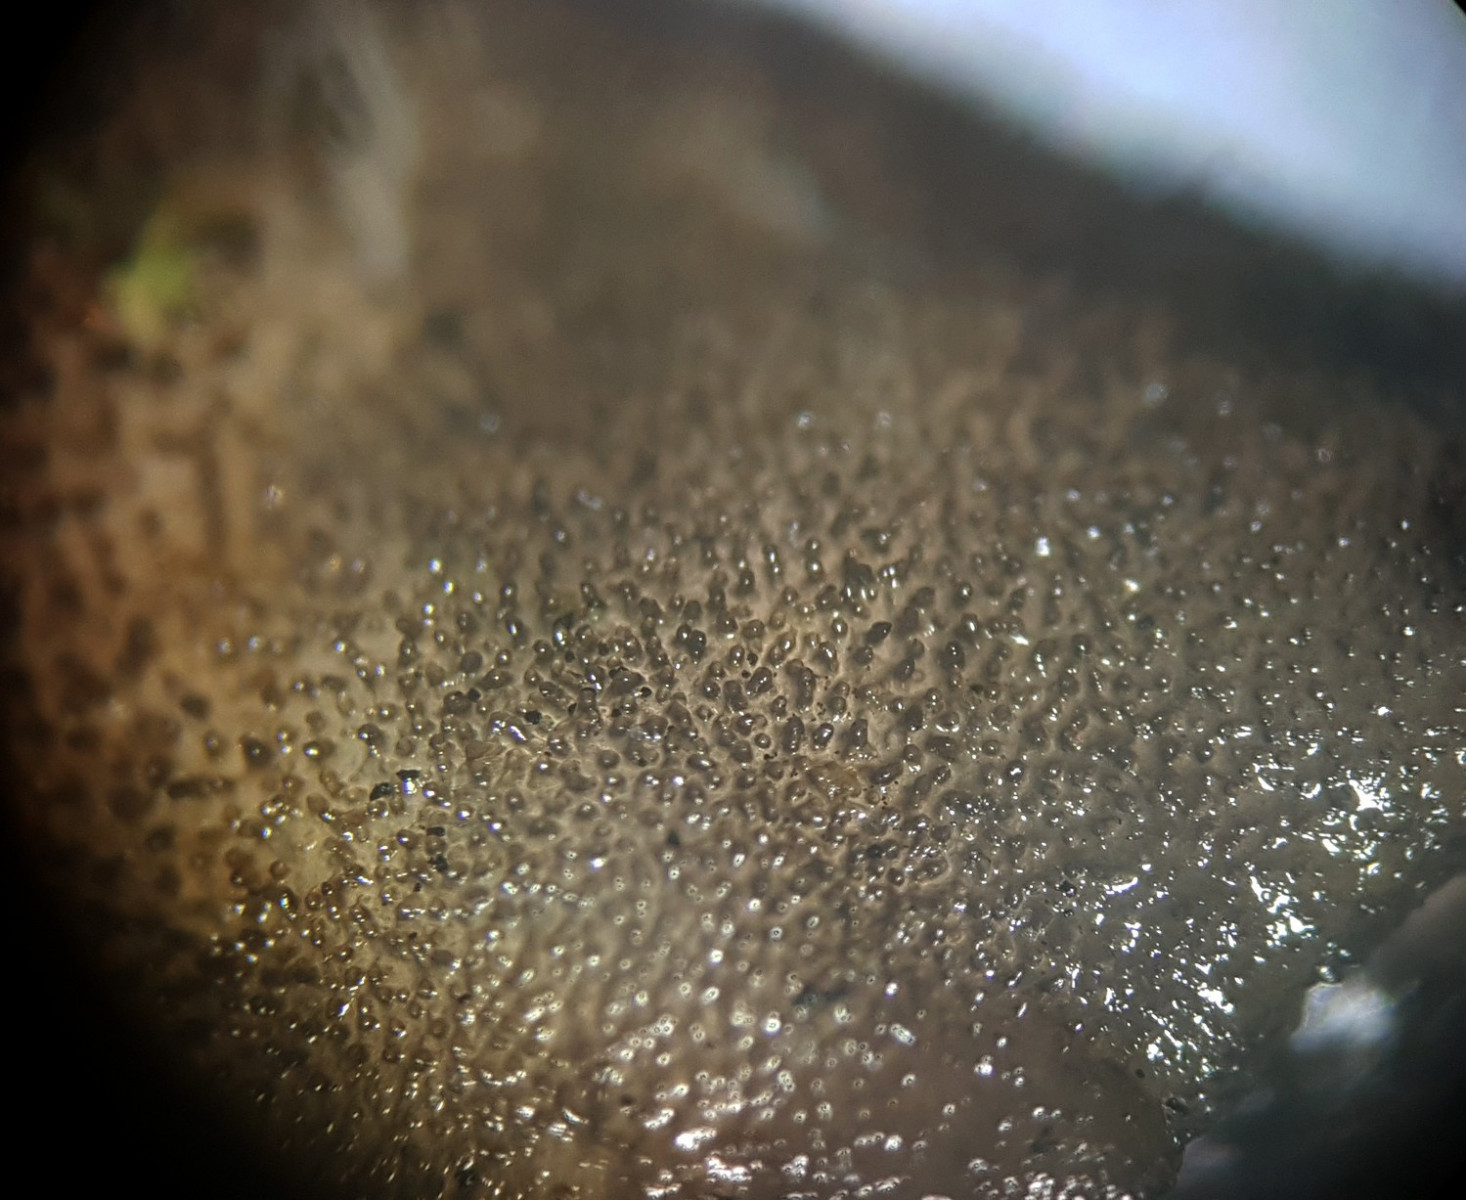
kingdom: Fungi
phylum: Basidiomycota
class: Agaricomycetes
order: Auriculariales
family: Auriculariaceae
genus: Exidia
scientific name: Exidia glandulosa
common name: ege-bævretop
